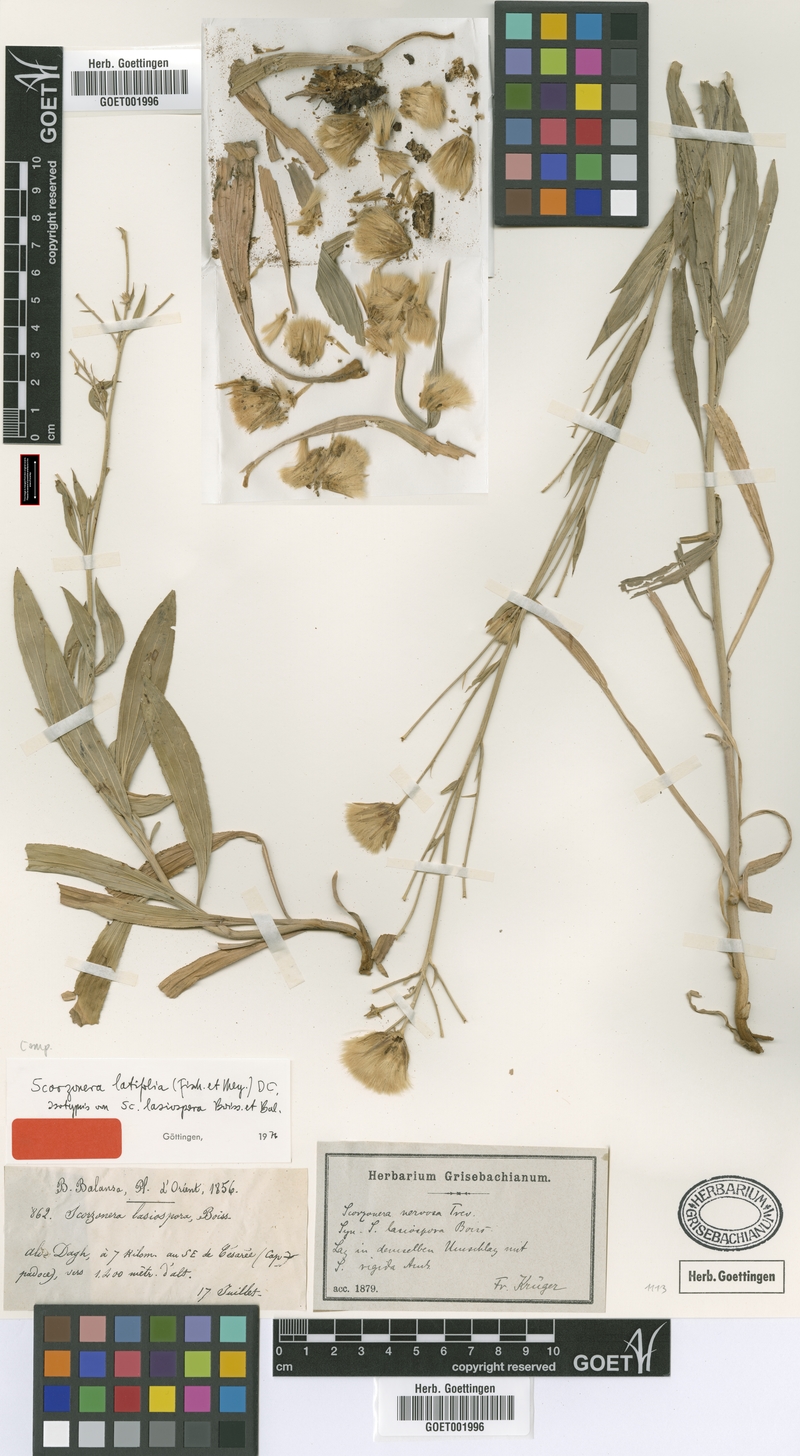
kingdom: Plantae
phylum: Tracheophyta
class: Magnoliopsida
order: Asterales
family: Asteraceae
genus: Guneria
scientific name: Guneria latifolia
